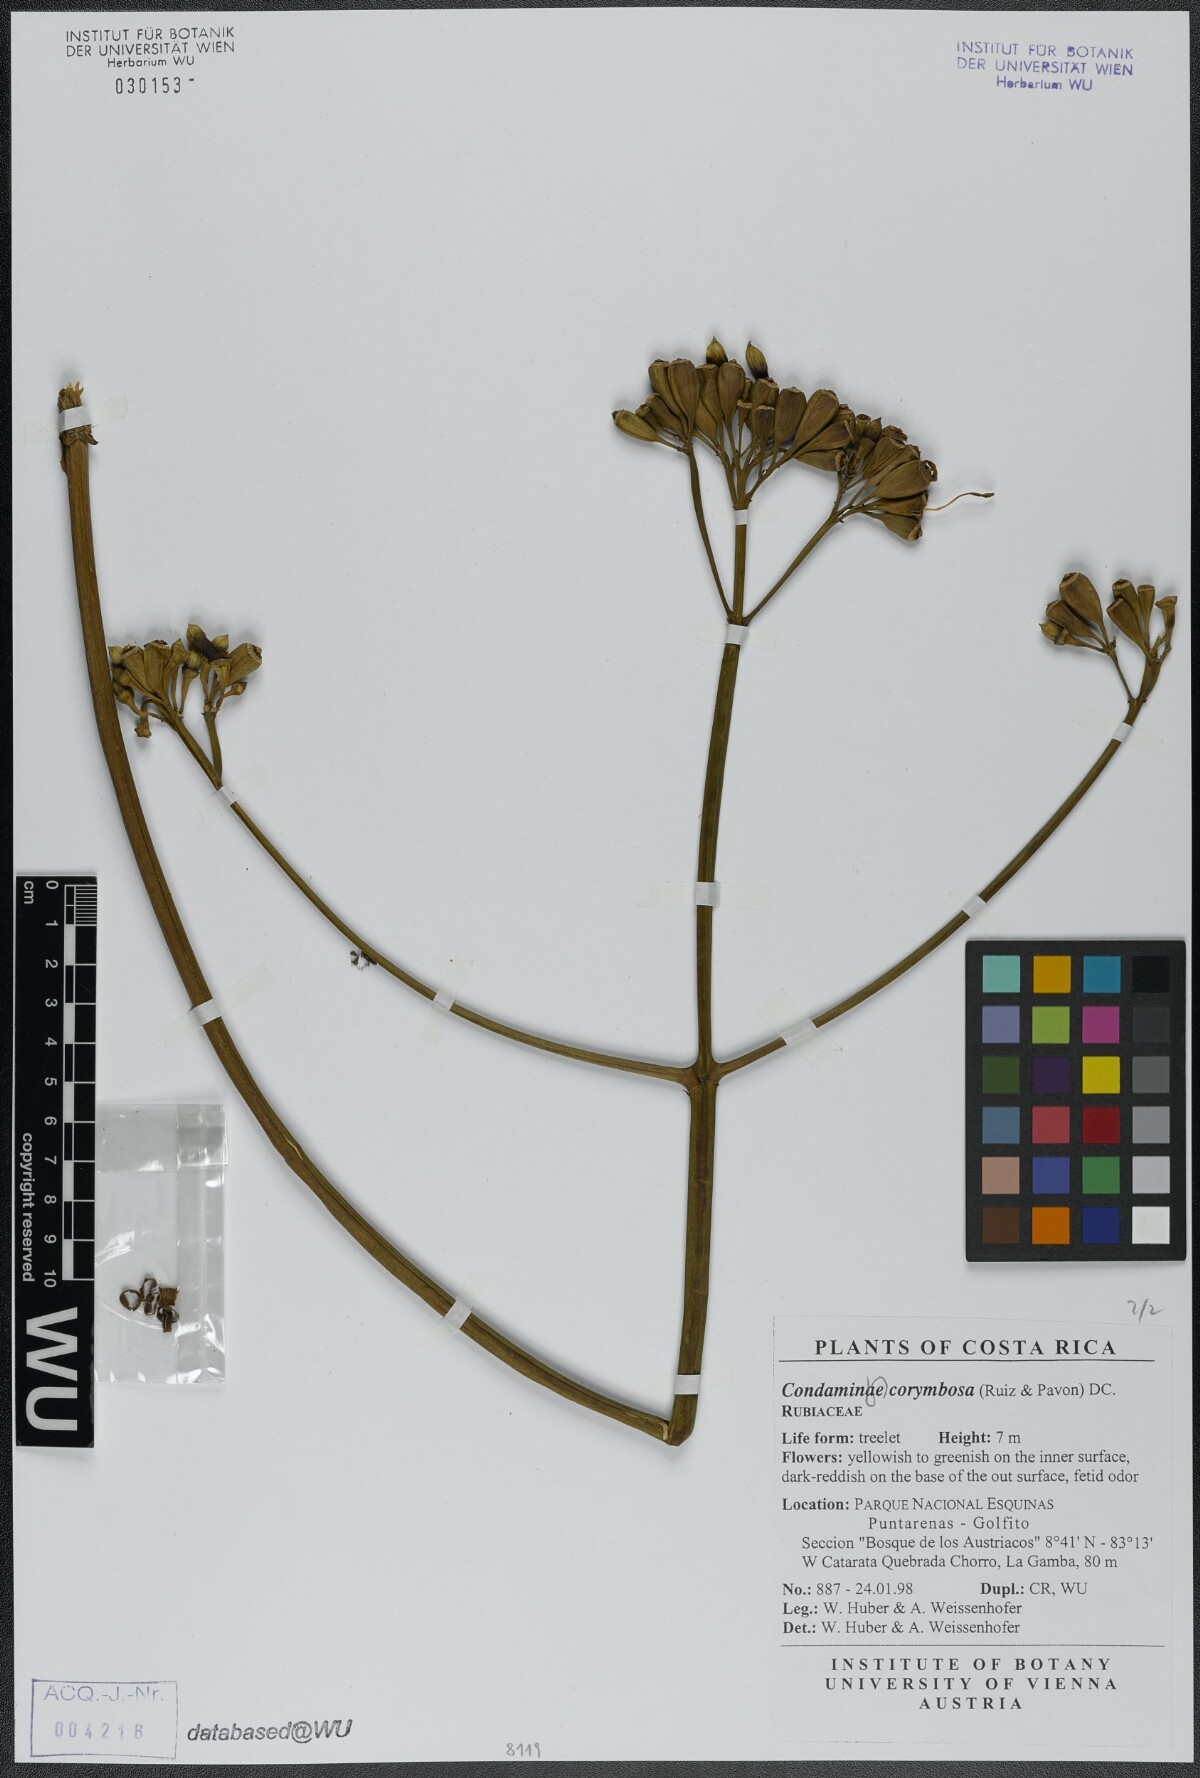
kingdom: Plantae
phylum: Tracheophyta
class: Magnoliopsida
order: Gentianales
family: Rubiaceae
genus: Condaminea
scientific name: Condaminea corymbosa
